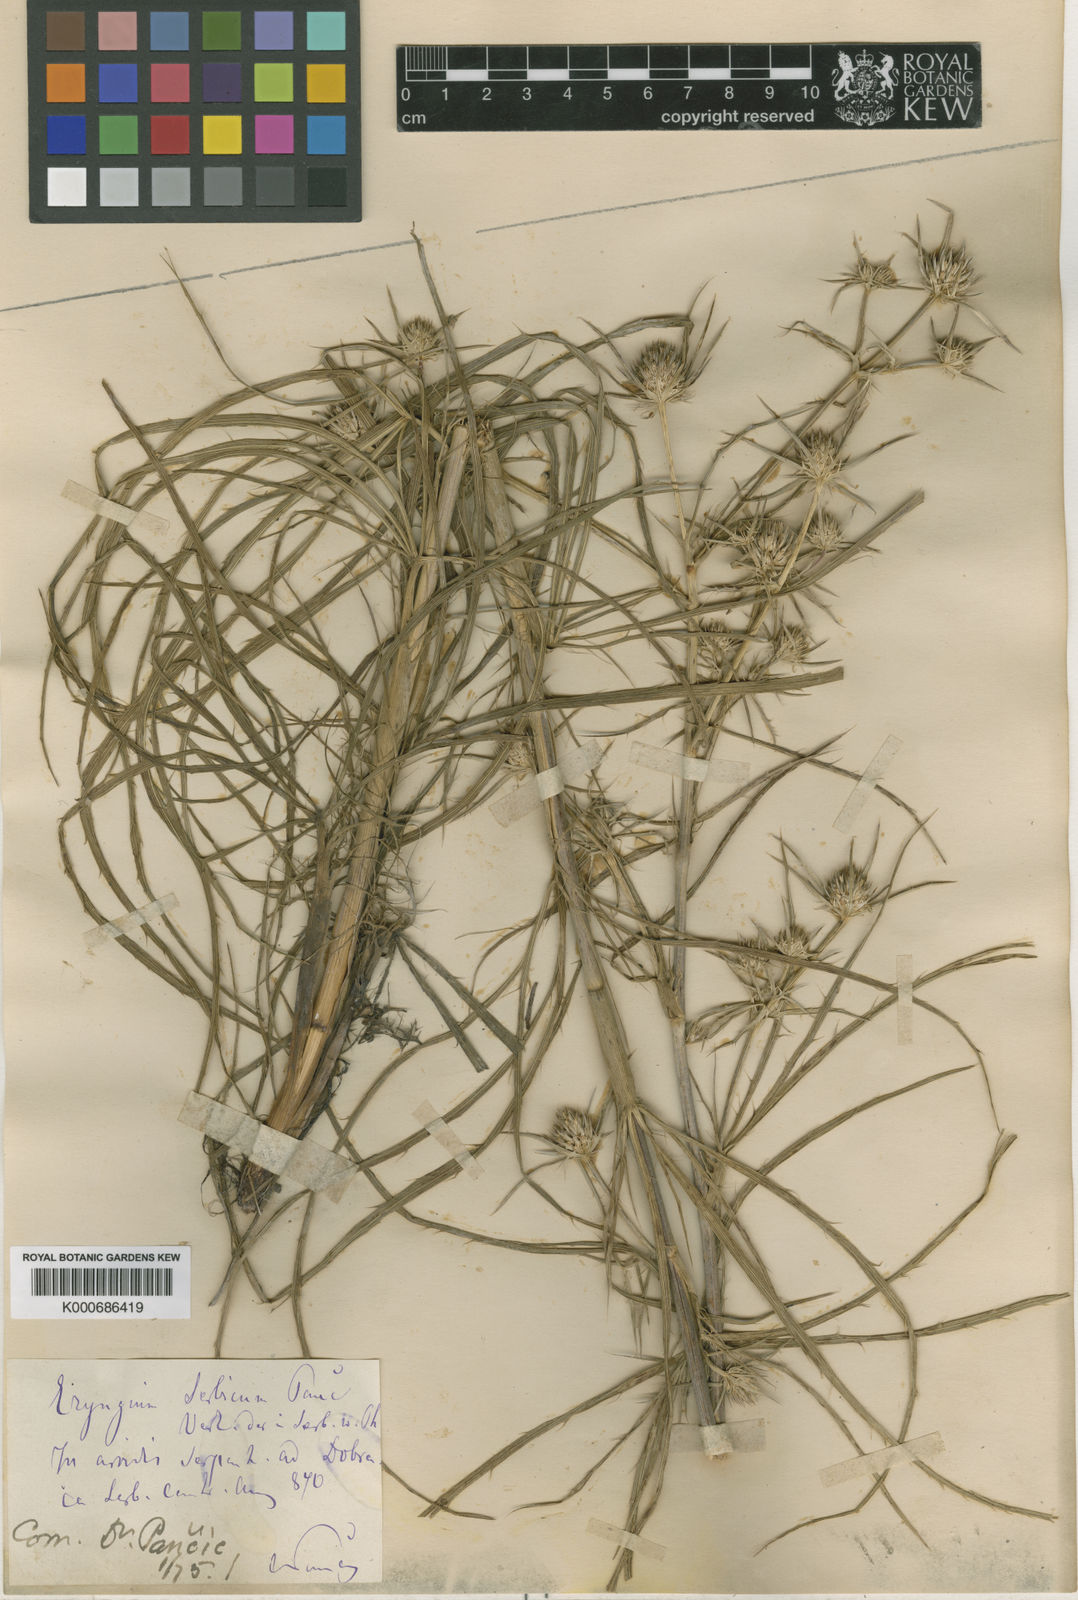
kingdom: Plantae
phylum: Tracheophyta
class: Magnoliopsida
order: Apiales
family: Apiaceae
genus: Eryngium
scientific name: Eryngium serbicum
